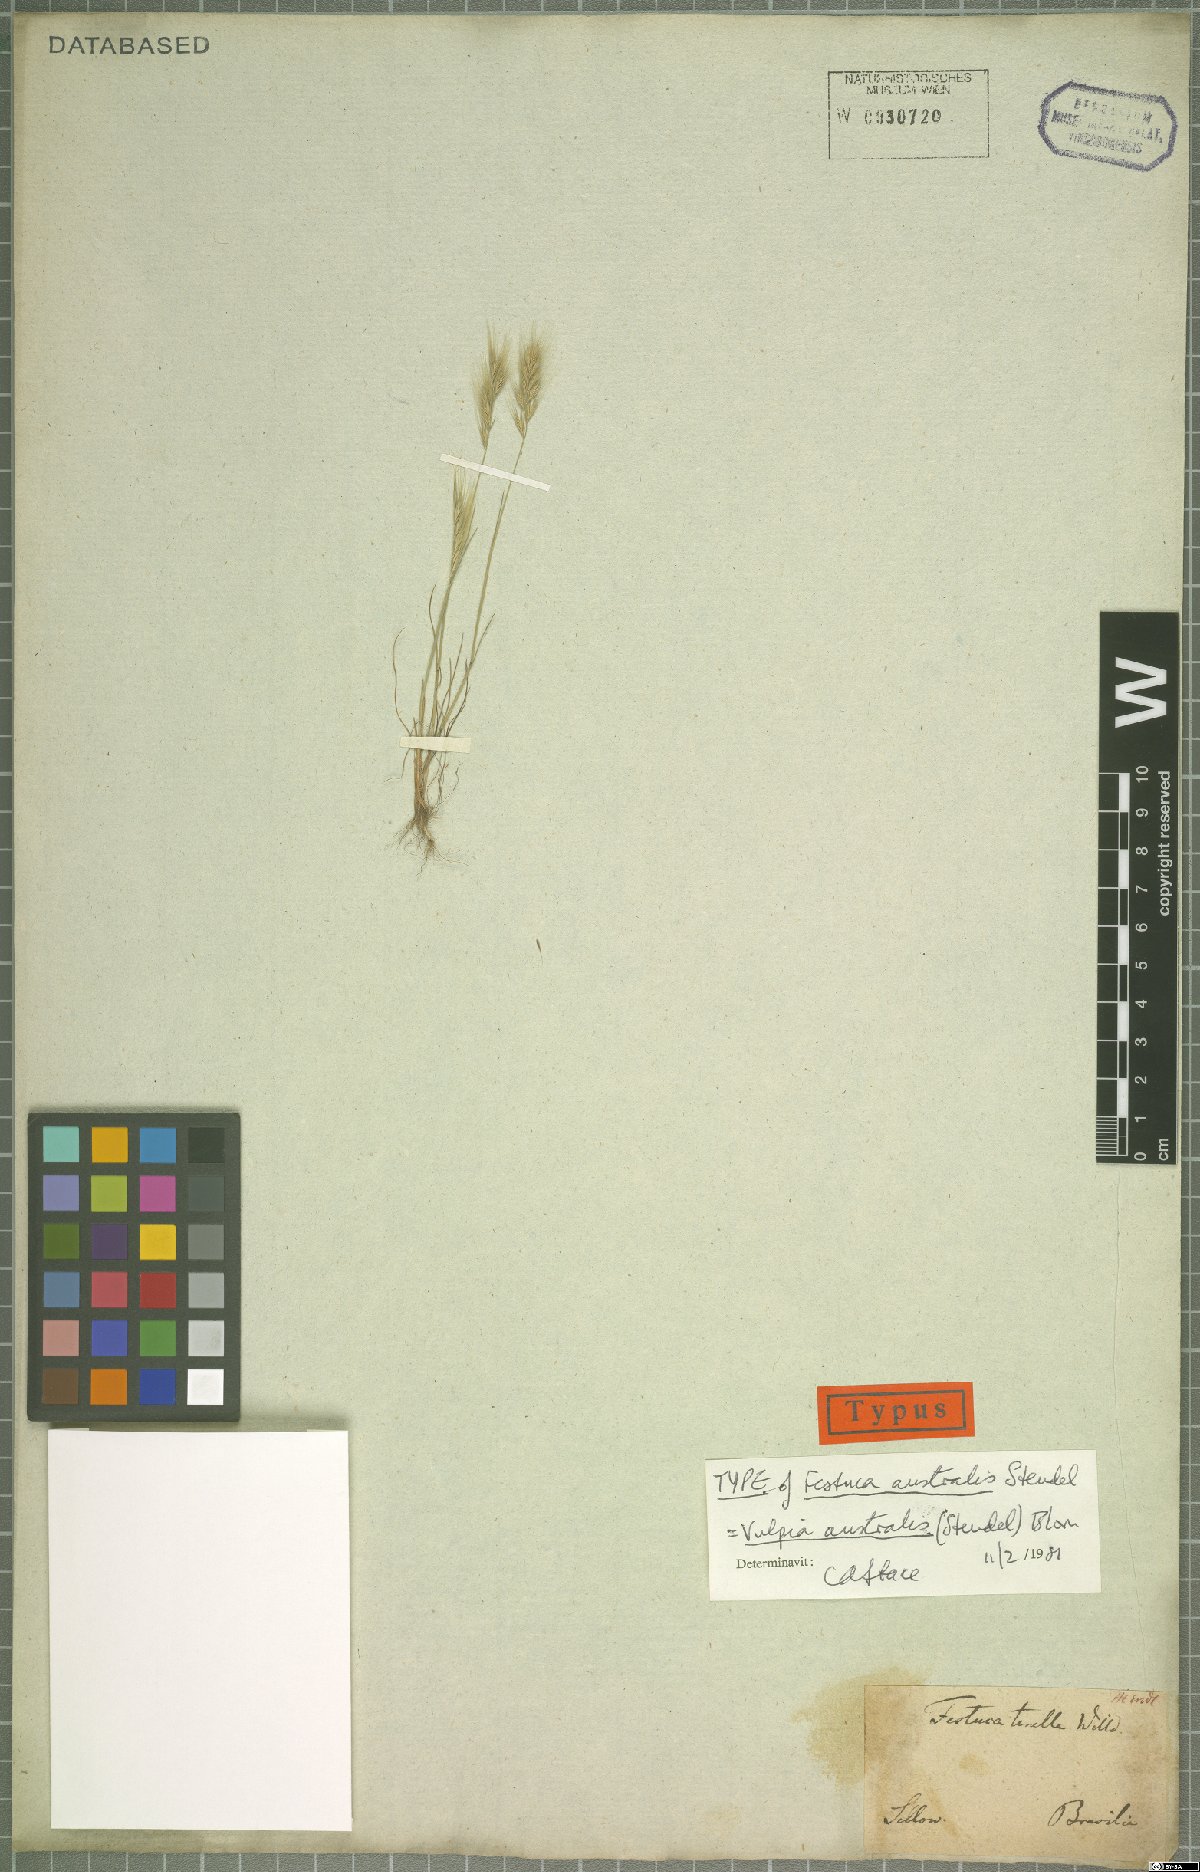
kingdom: Plantae
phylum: Tracheophyta
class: Liliopsida
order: Poales
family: Poaceae
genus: Festuca
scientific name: Festuca australis
